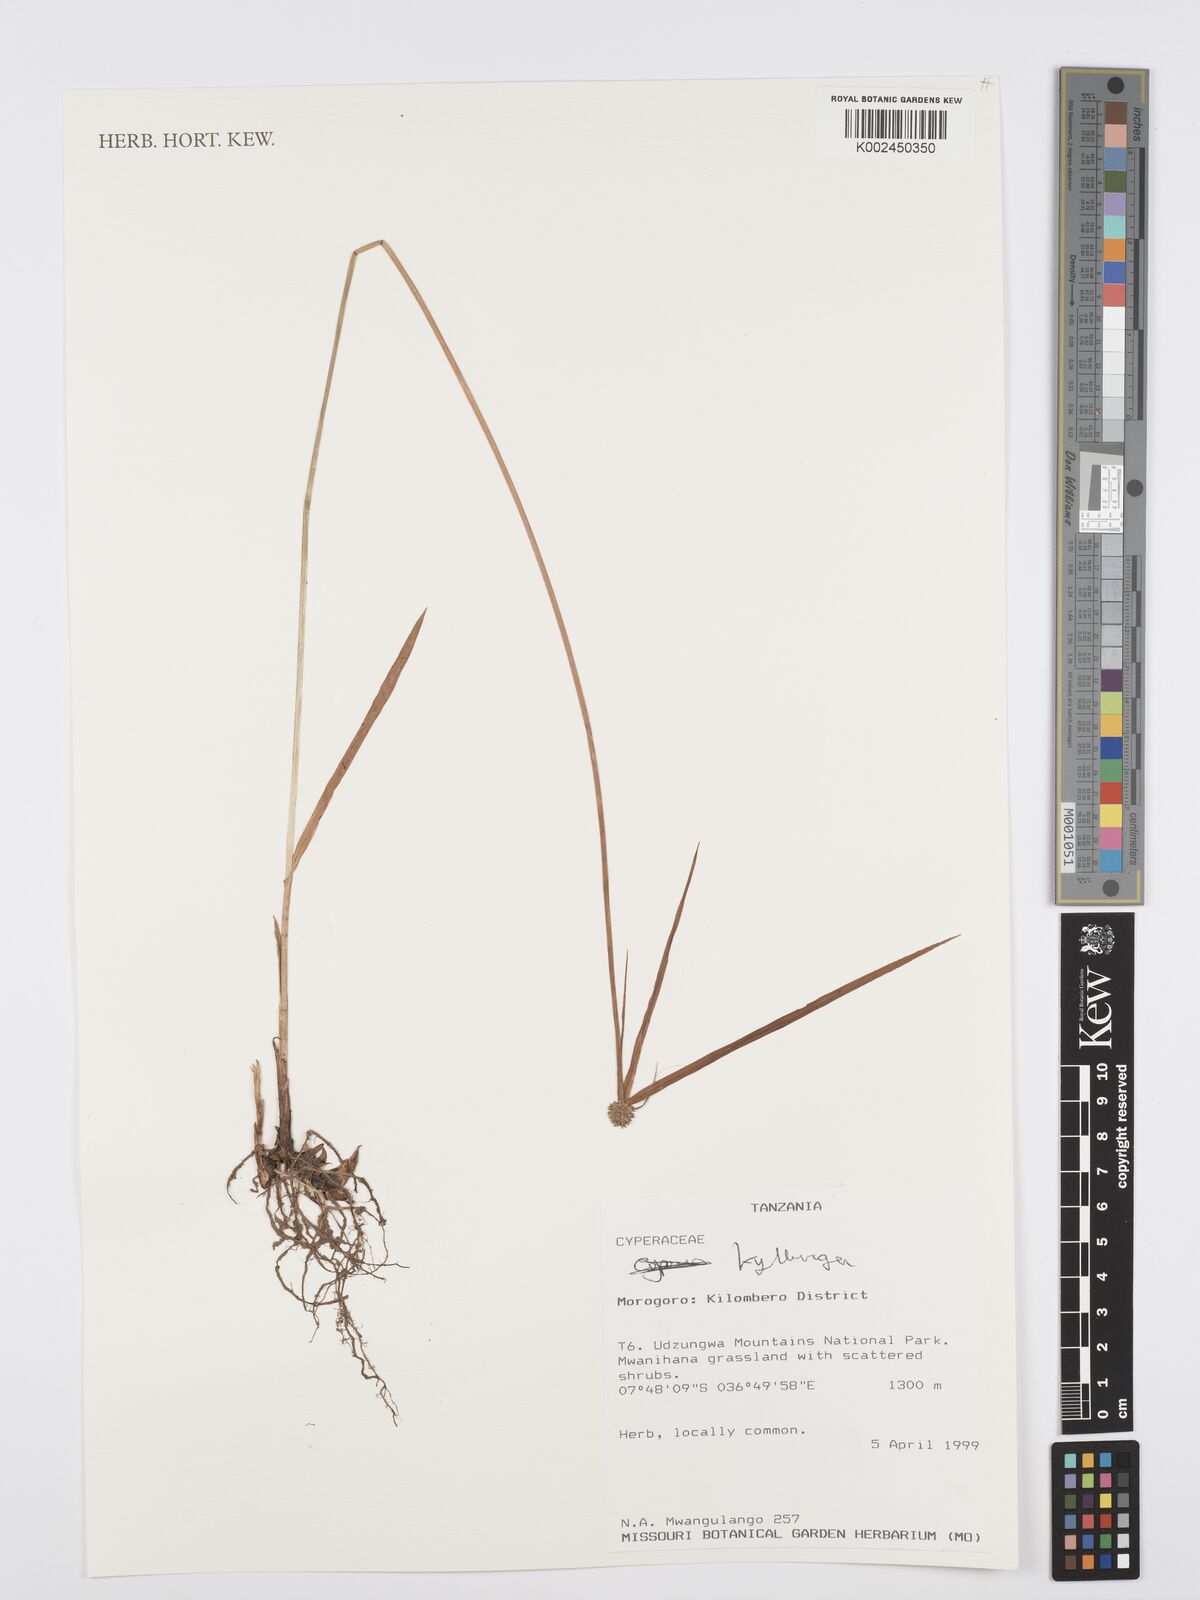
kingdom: Plantae
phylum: Tracheophyta
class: Liliopsida
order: Poales
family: Cyperaceae
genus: Cyperus
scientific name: Cyperus
